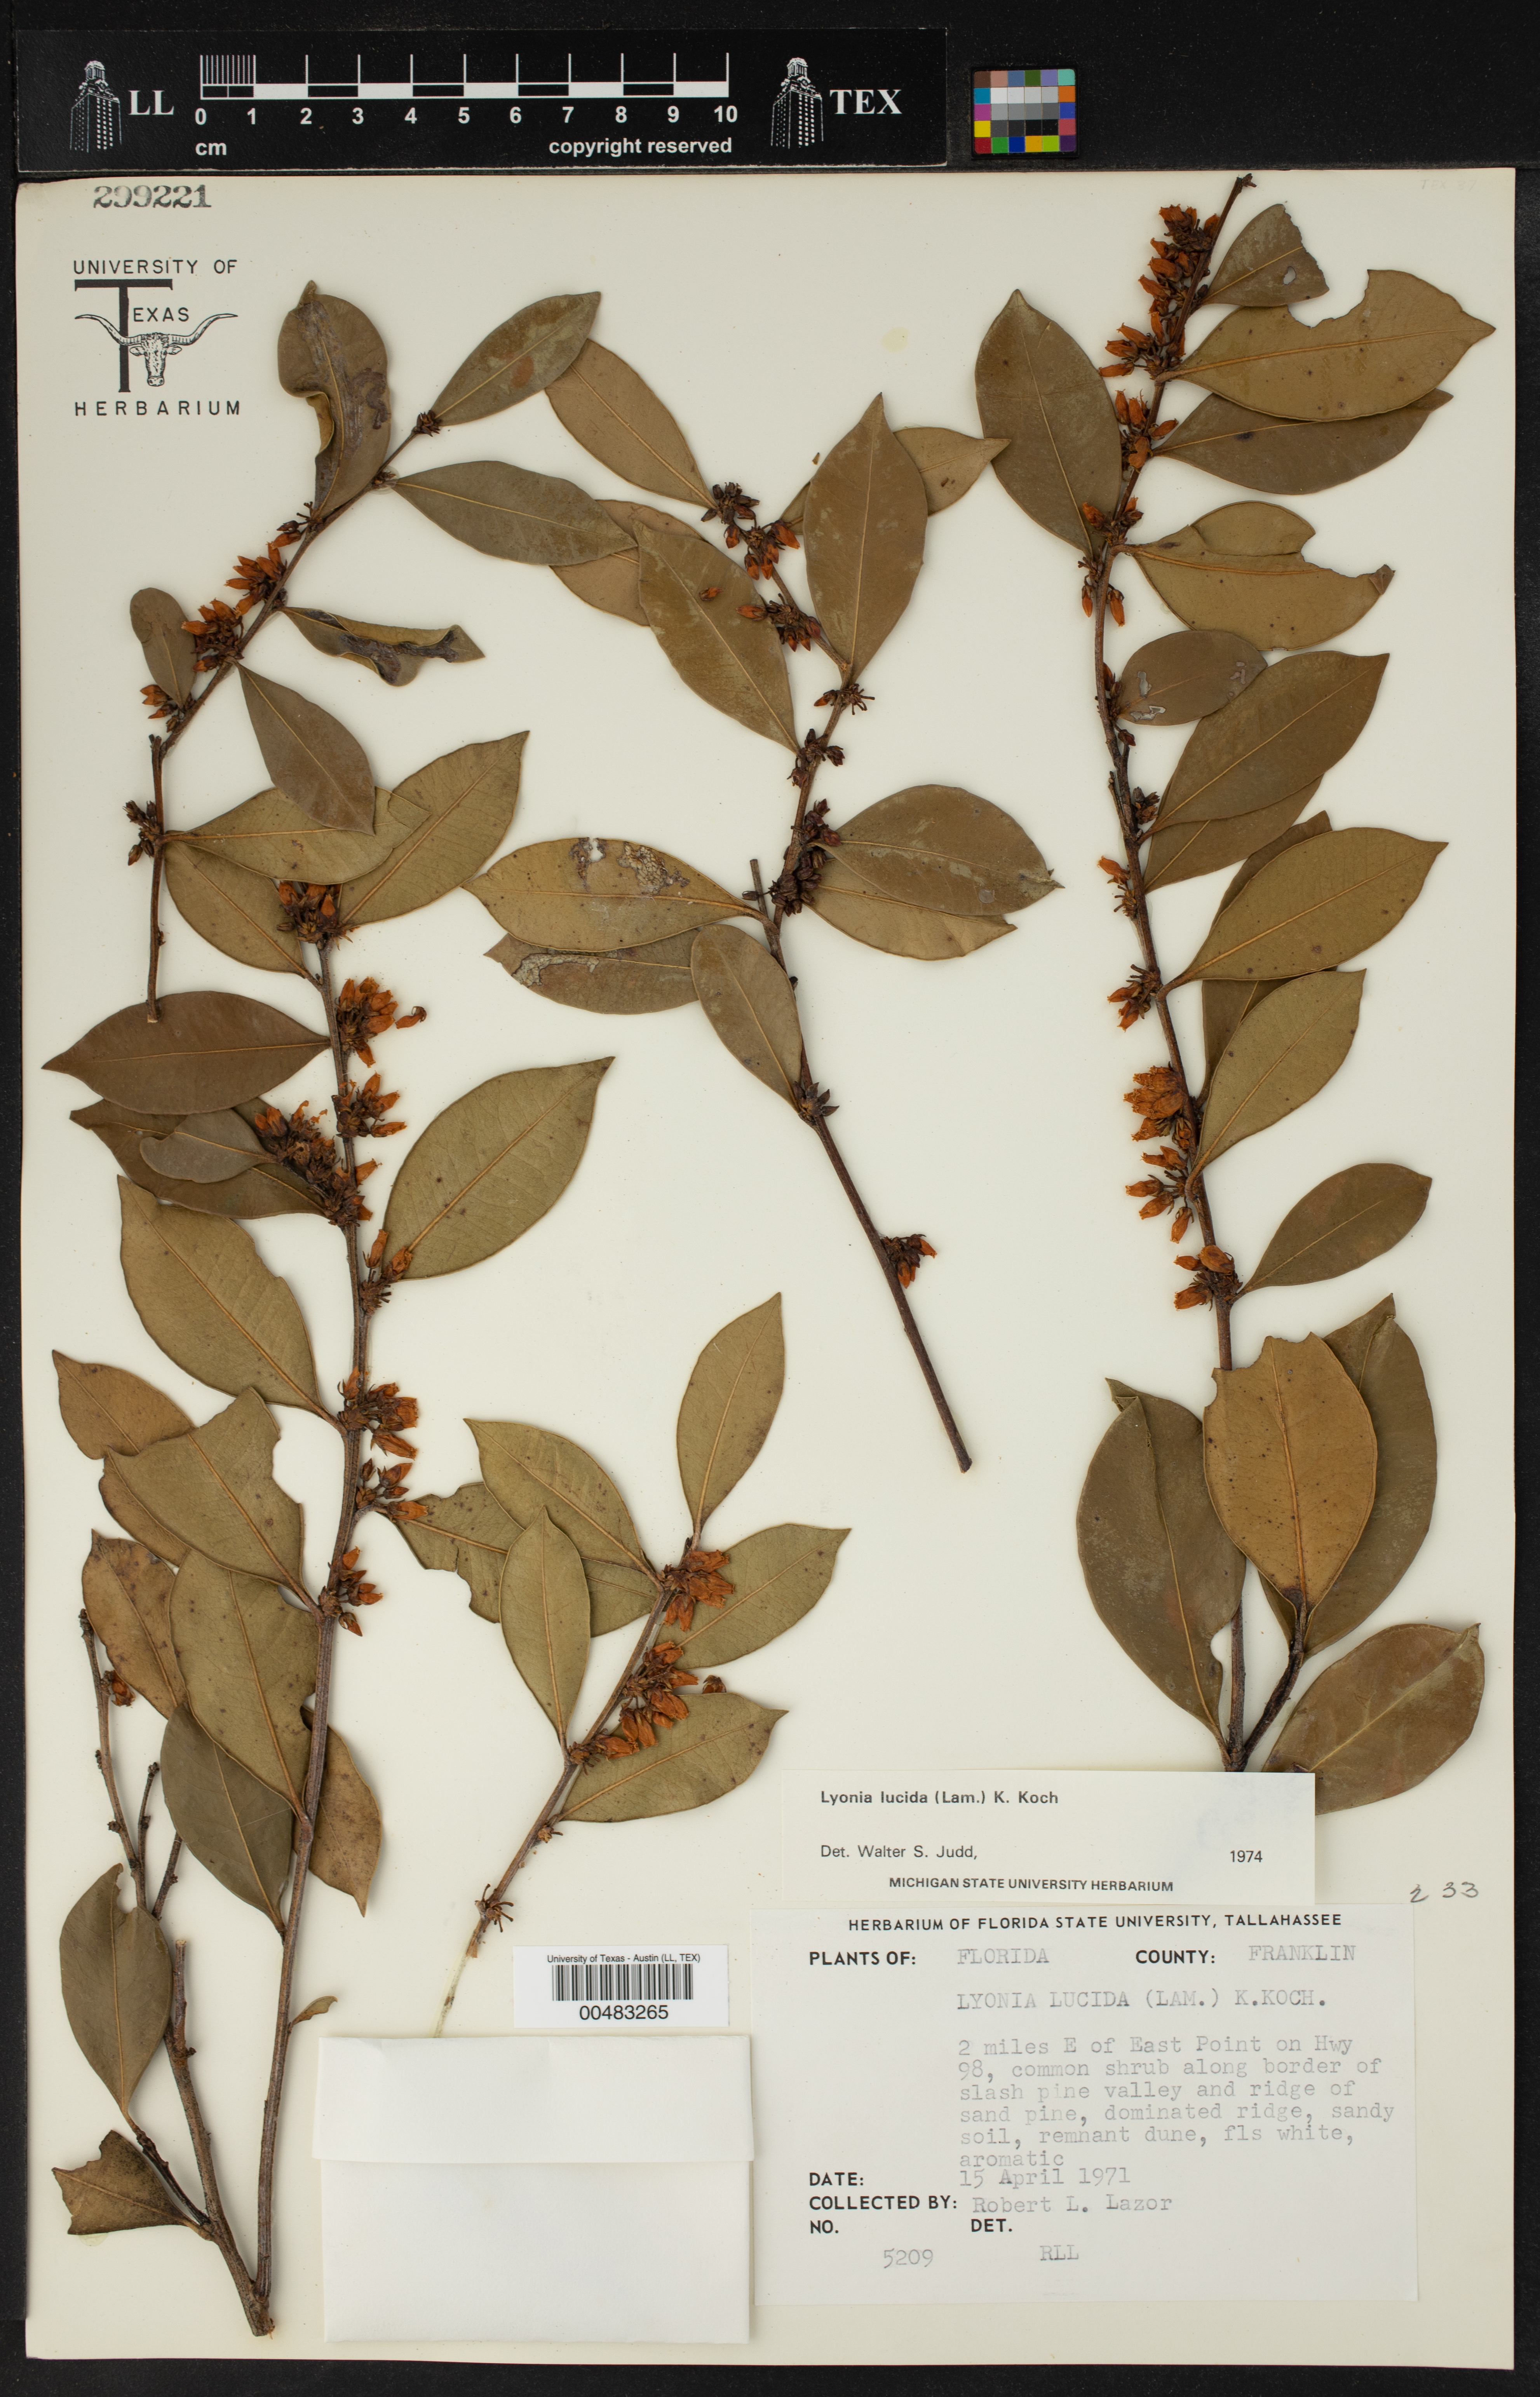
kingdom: Plantae
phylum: Tracheophyta
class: Magnoliopsida
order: Ericales
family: Ericaceae
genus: Lyonia
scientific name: Lyonia lucida
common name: Fetterbush
